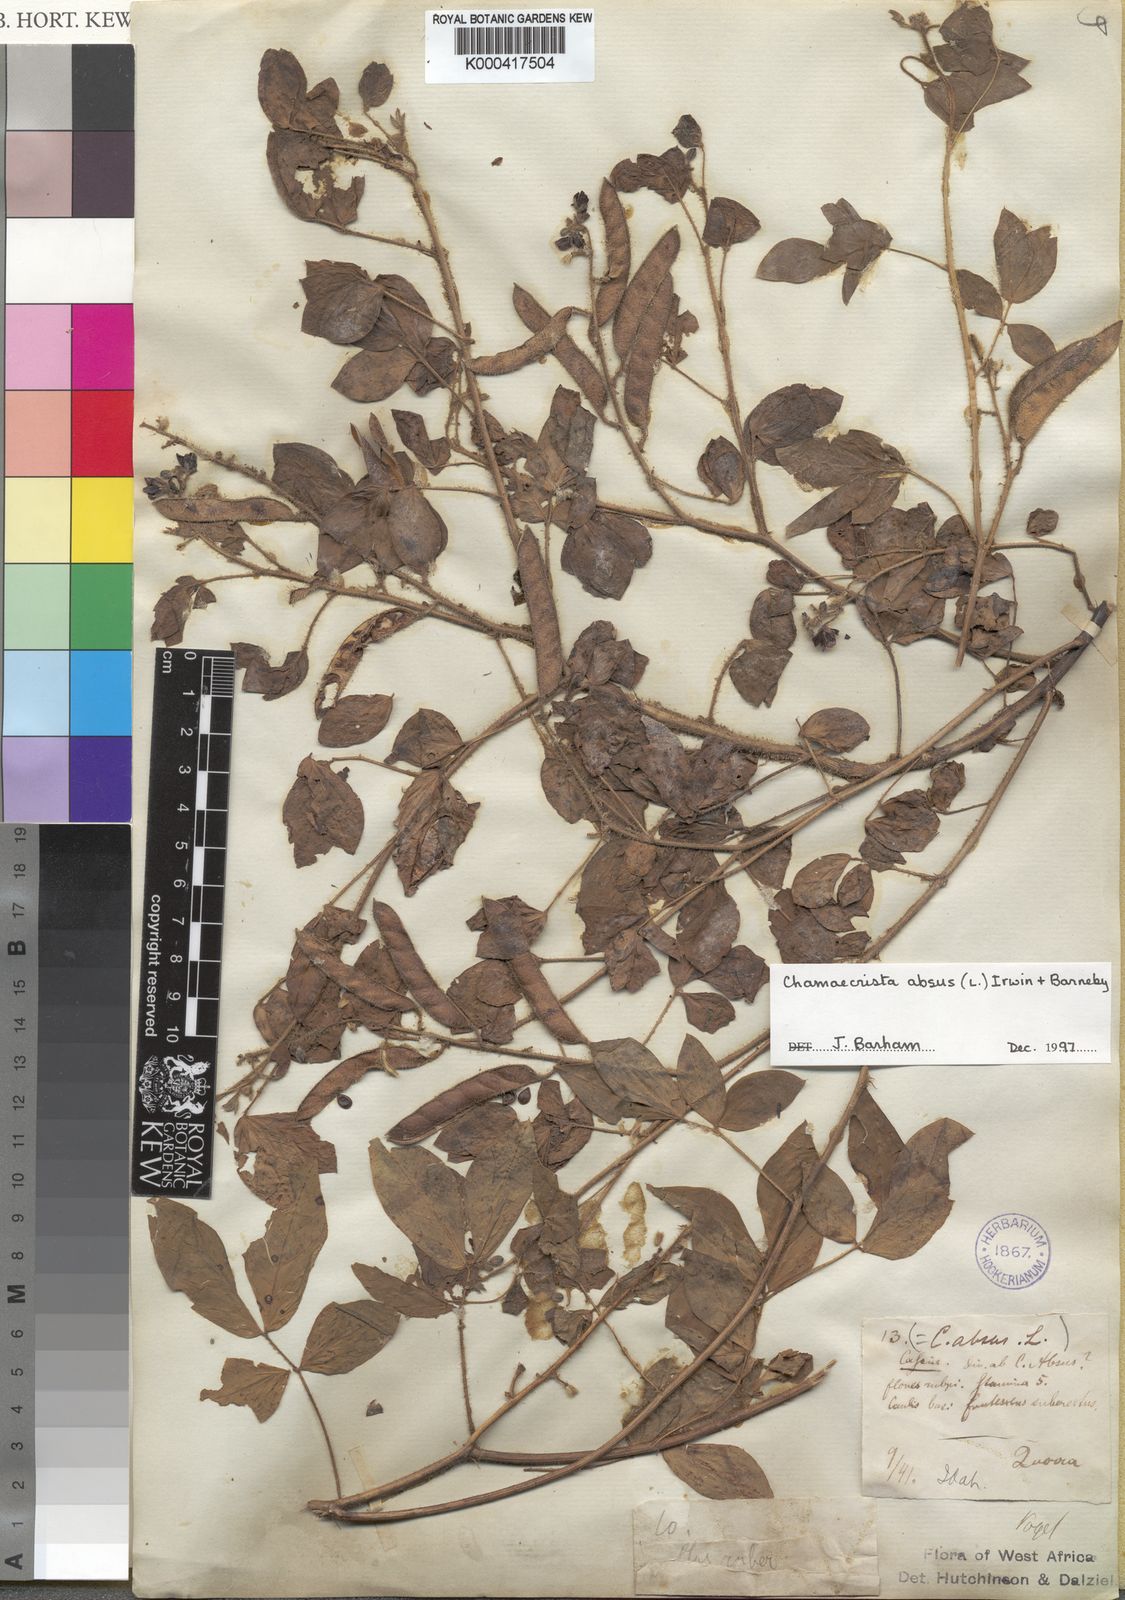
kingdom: Plantae
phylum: Tracheophyta
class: Magnoliopsida
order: Fabales
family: Fabaceae
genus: Chamaecrista
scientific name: Chamaecrista absus
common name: Tropical sensitive pea
